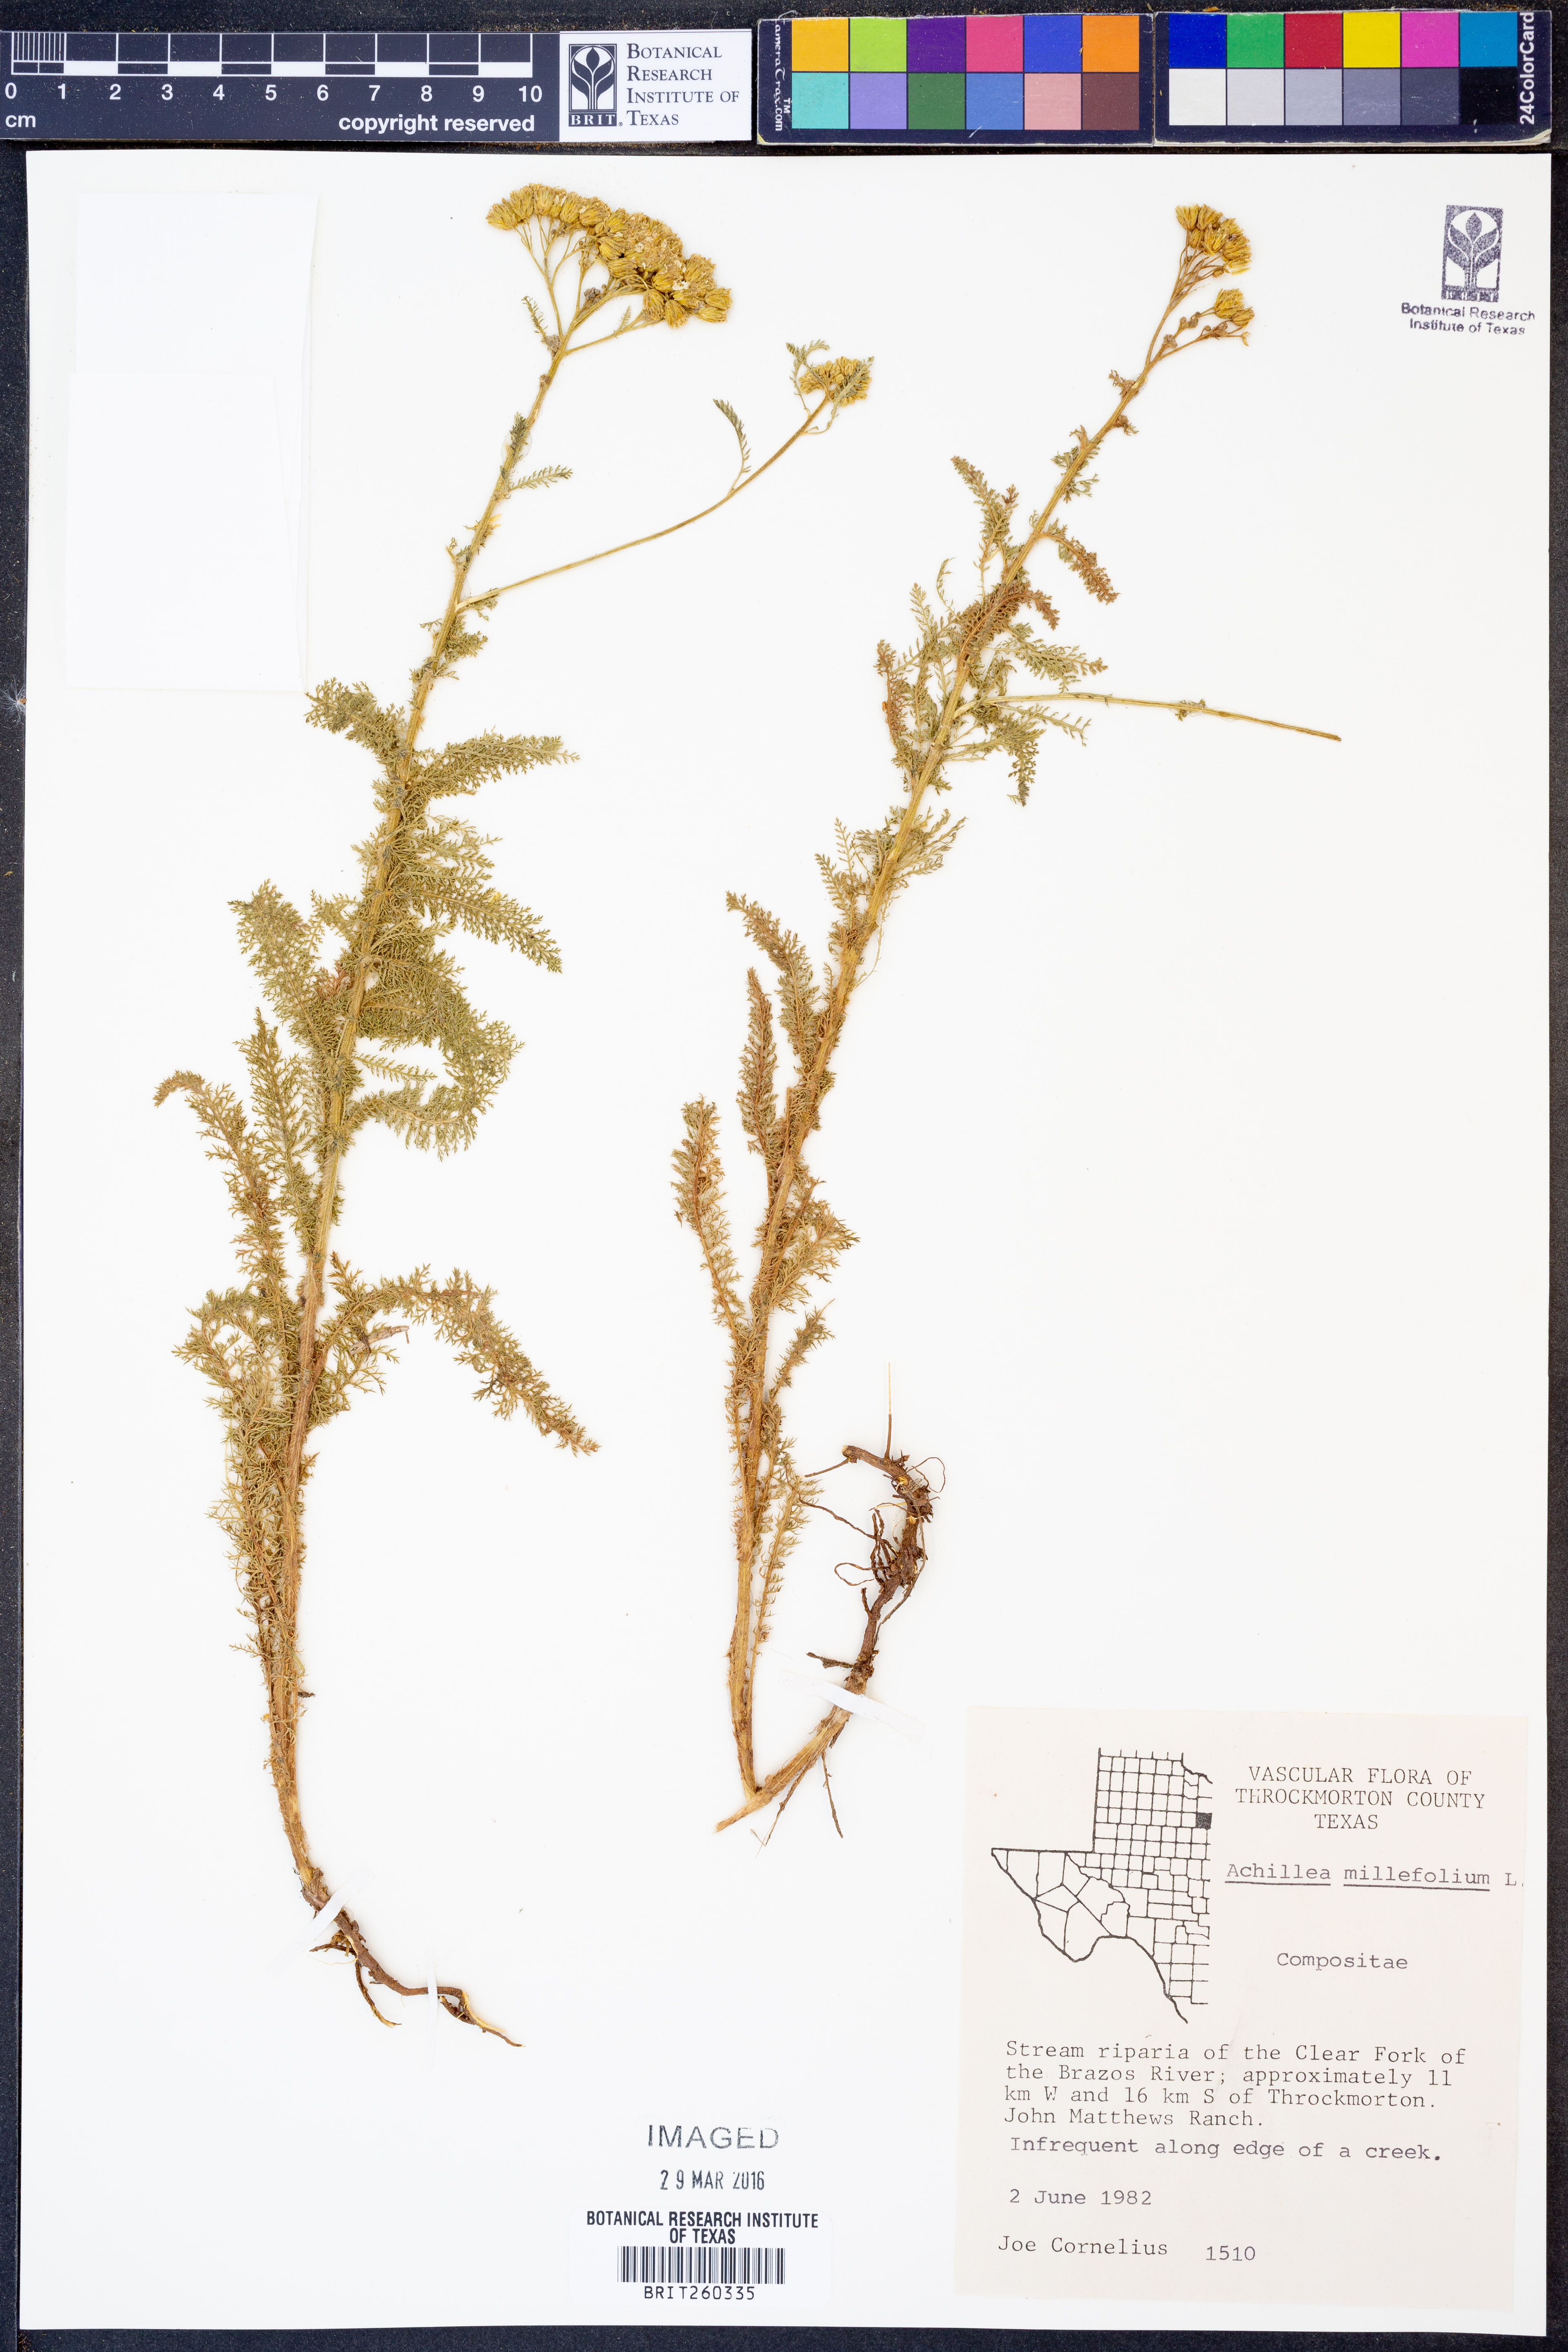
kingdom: Plantae
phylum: Tracheophyta
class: Magnoliopsida
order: Asterales
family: Asteraceae
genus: Achillea
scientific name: Achillea millefolium
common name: Yarrow
